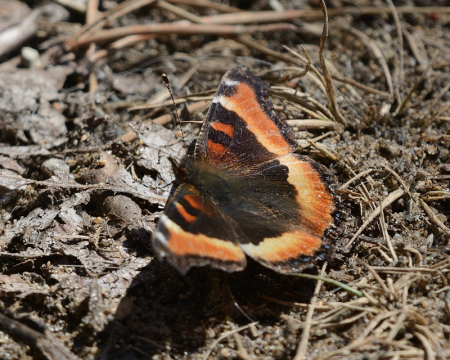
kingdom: Animalia
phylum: Arthropoda
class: Insecta
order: Lepidoptera
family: Nymphalidae
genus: Aglais
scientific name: Aglais milberti
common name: Milbert's Tortoiseshell
